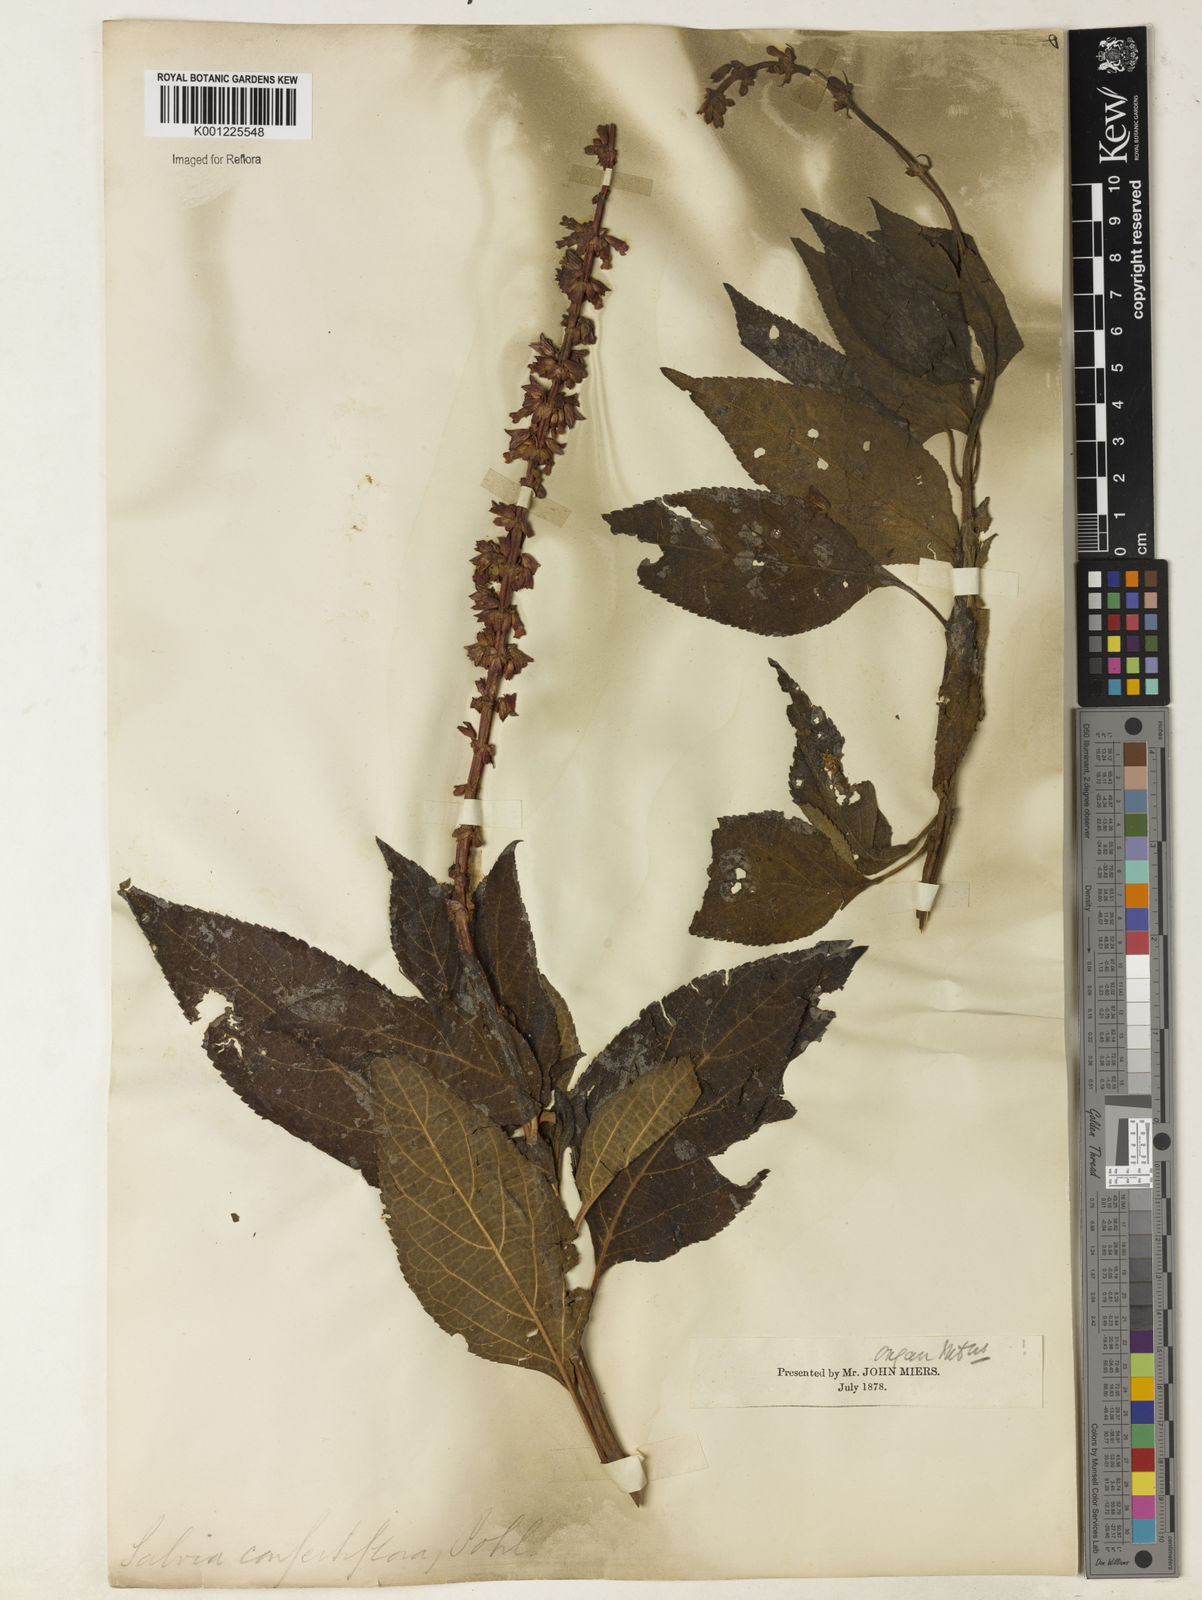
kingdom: Plantae
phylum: Tracheophyta
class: Magnoliopsida
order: Lamiales
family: Lamiaceae
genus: Salvia
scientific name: Salvia confertiflora
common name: Sabra-spike sage
